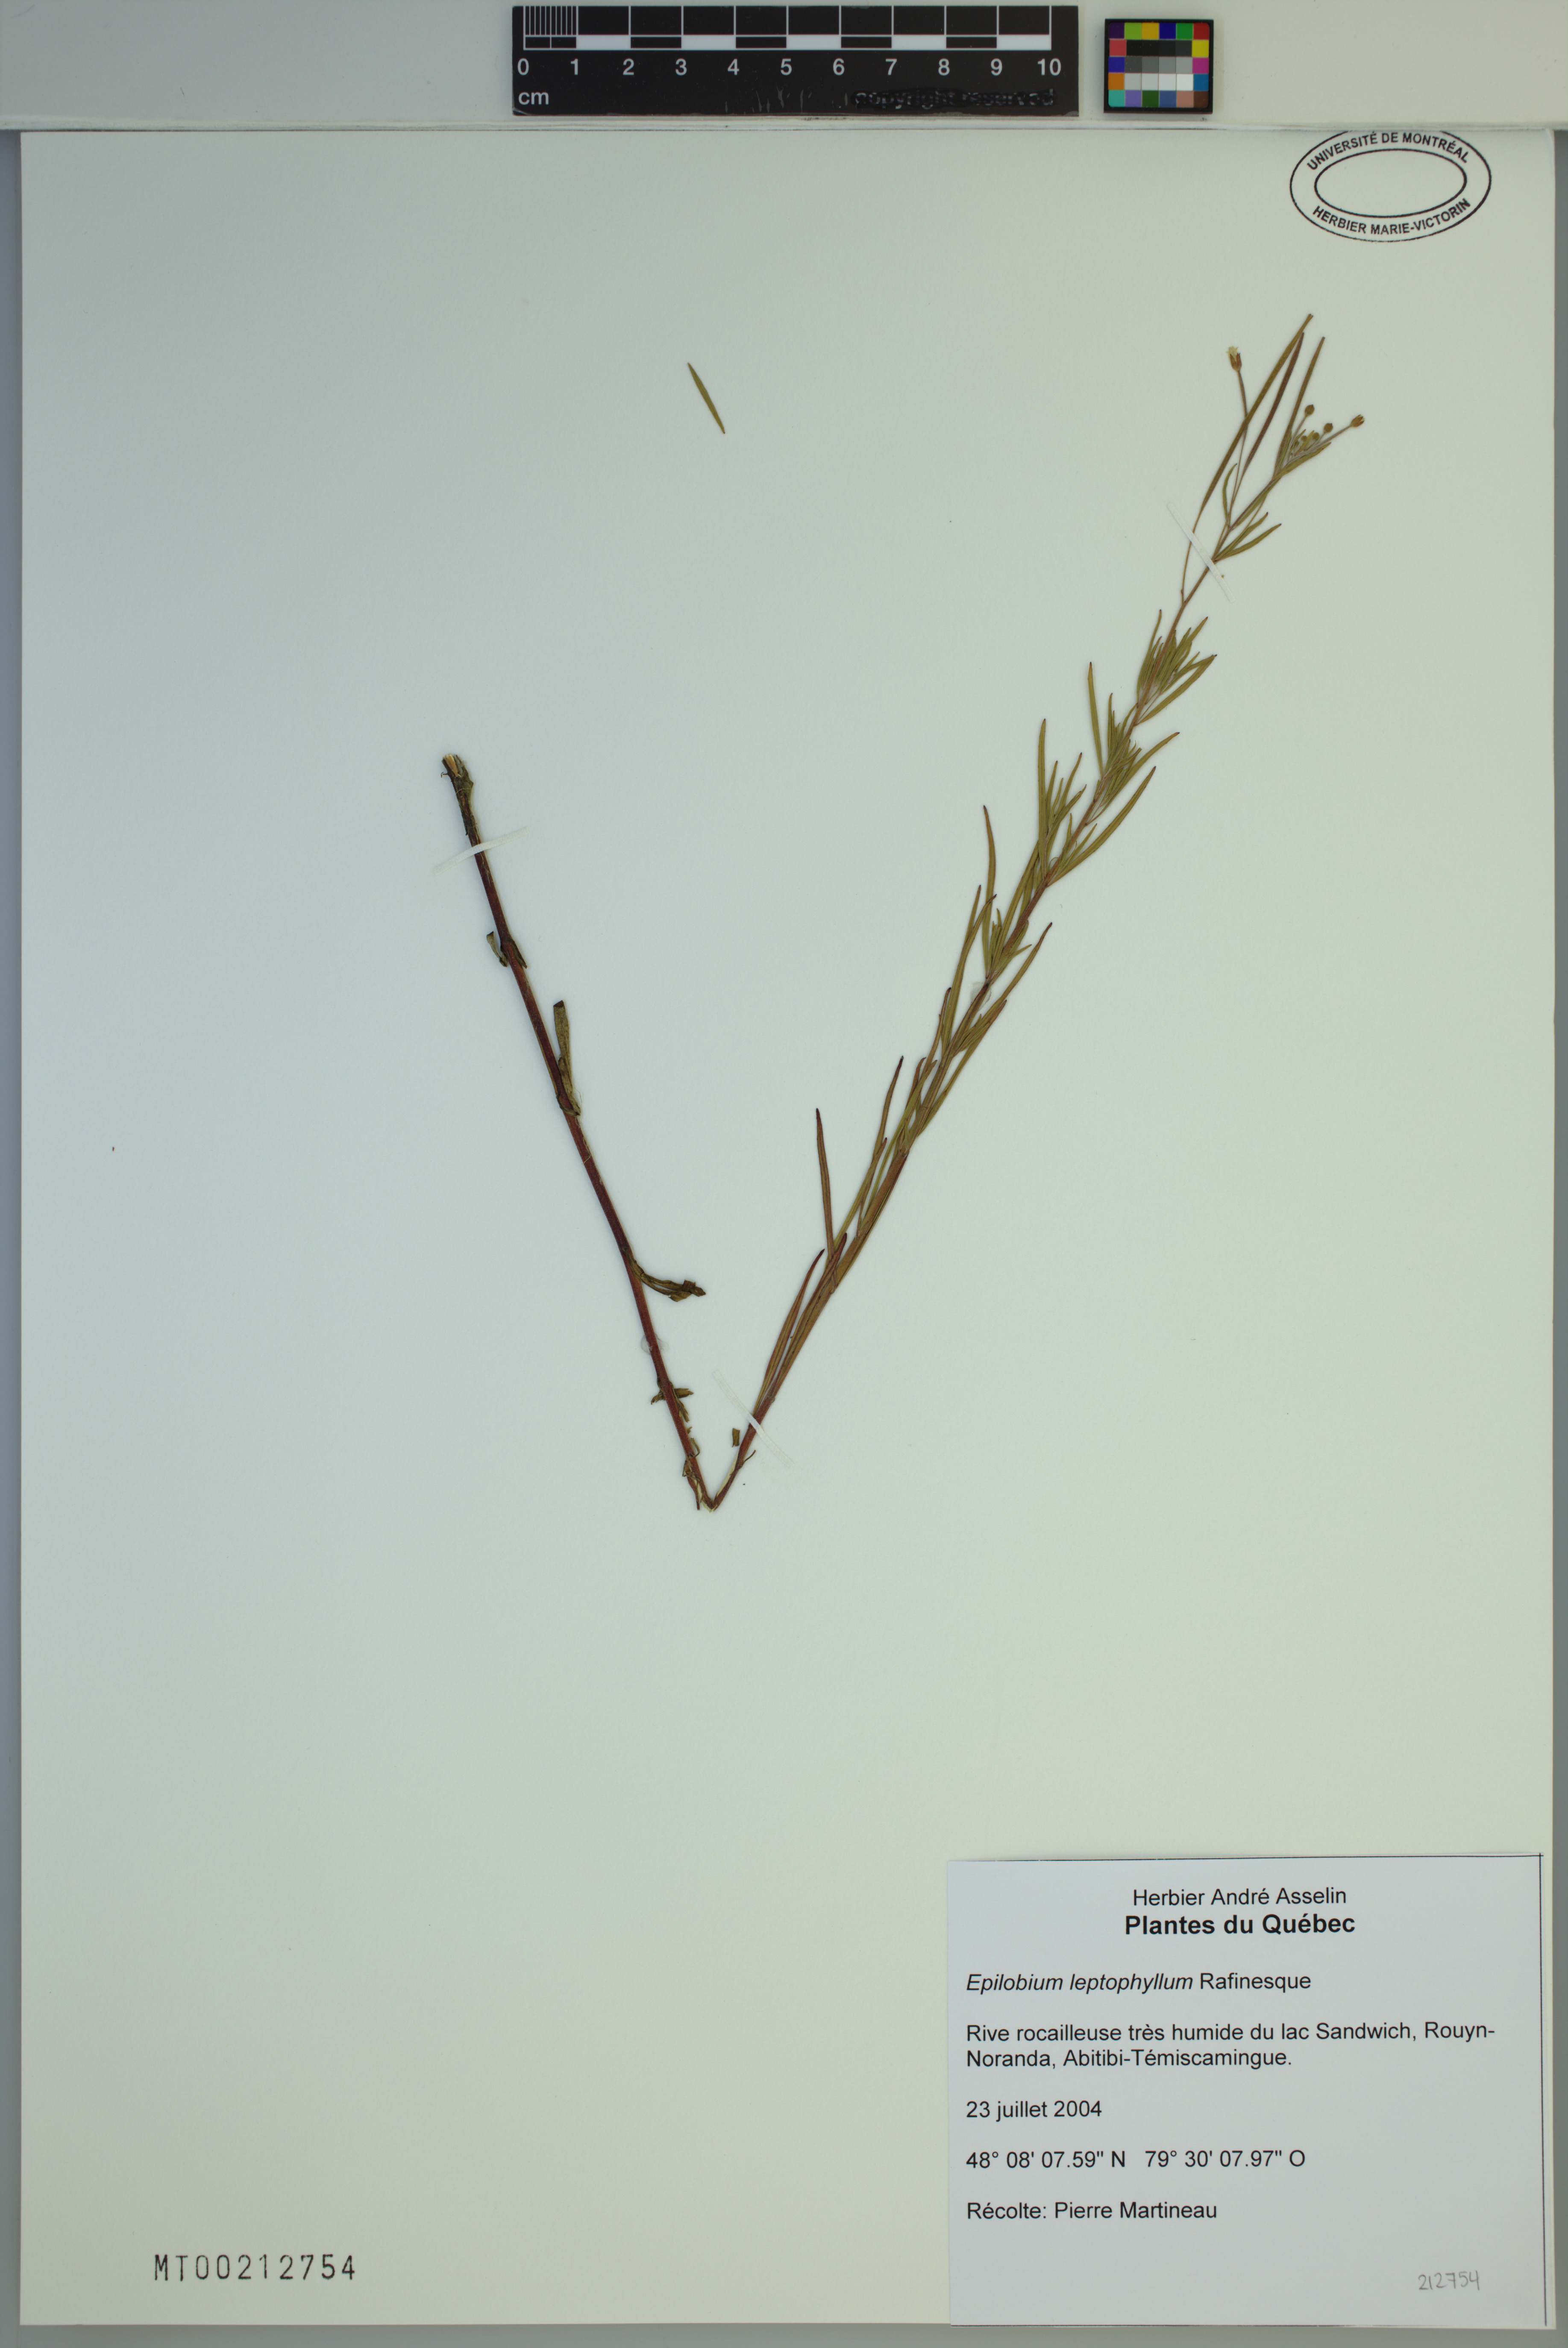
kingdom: Plantae
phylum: Tracheophyta
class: Magnoliopsida
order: Myrtales
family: Onagraceae
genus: Epilobium
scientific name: Epilobium leptophyllum
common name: Bog willowherb
